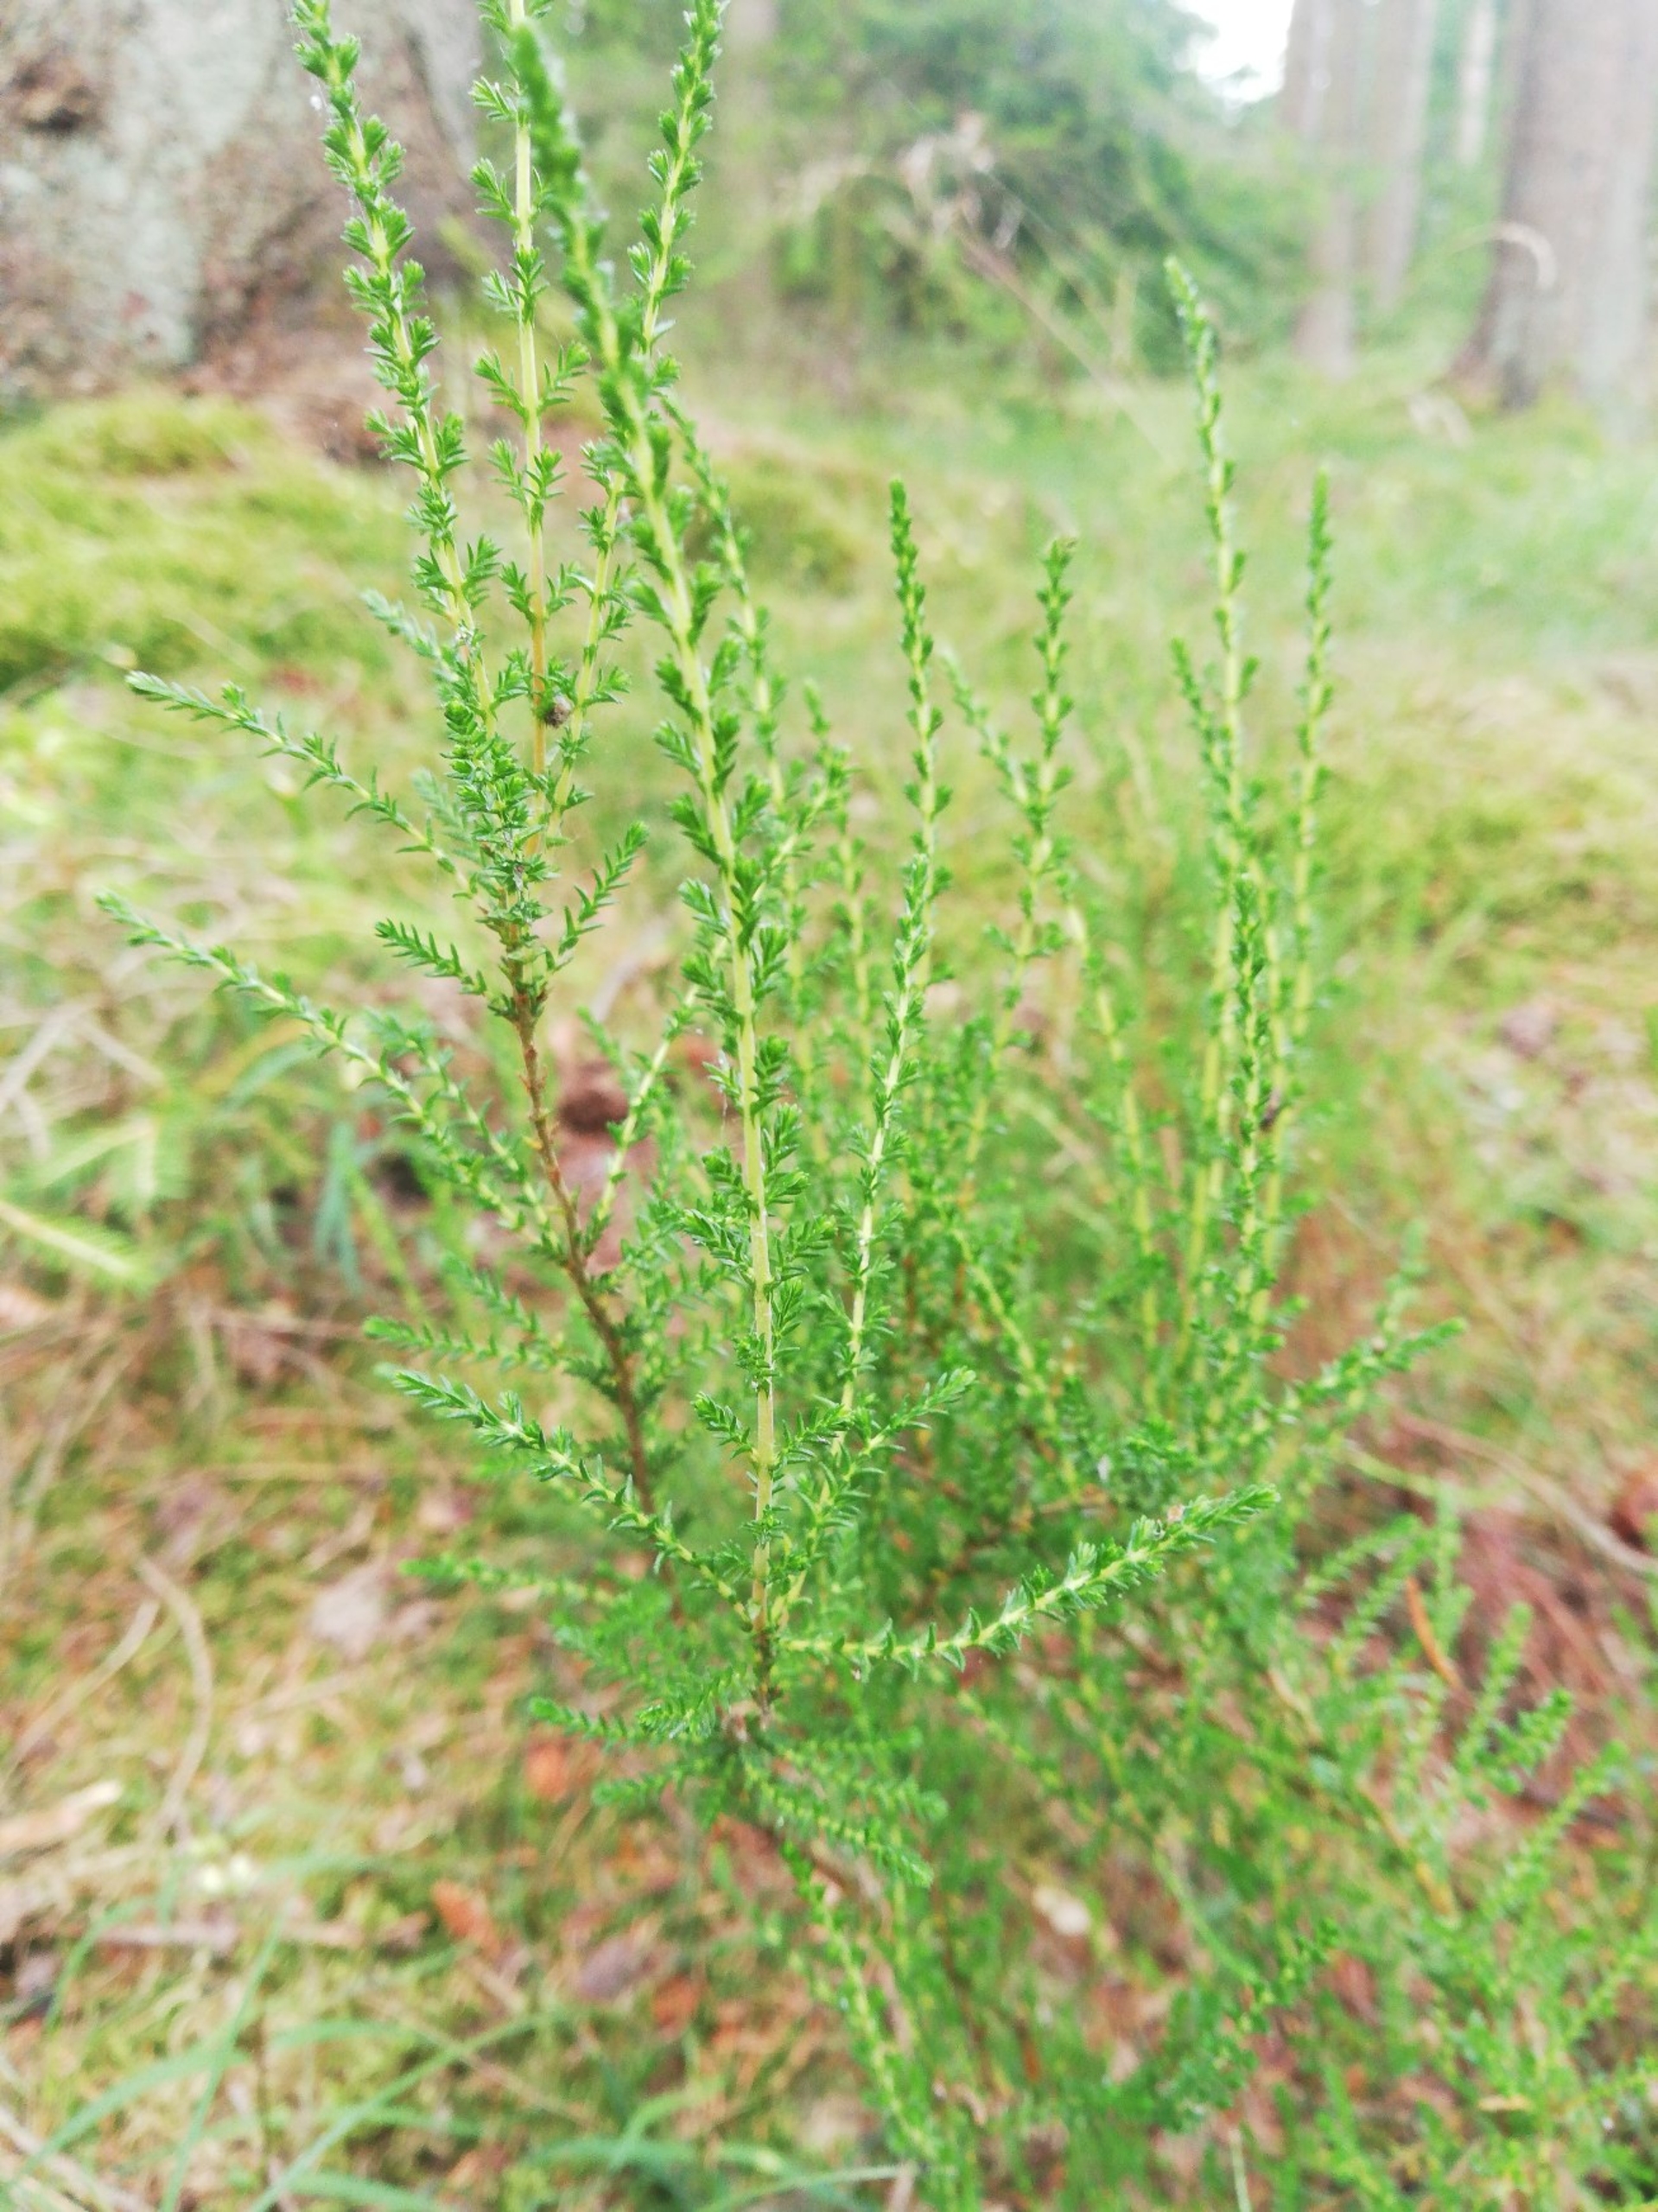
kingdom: Plantae
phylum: Tracheophyta
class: Magnoliopsida
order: Ericales
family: Ericaceae
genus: Calluna
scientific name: Calluna vulgaris
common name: Hedelyng
